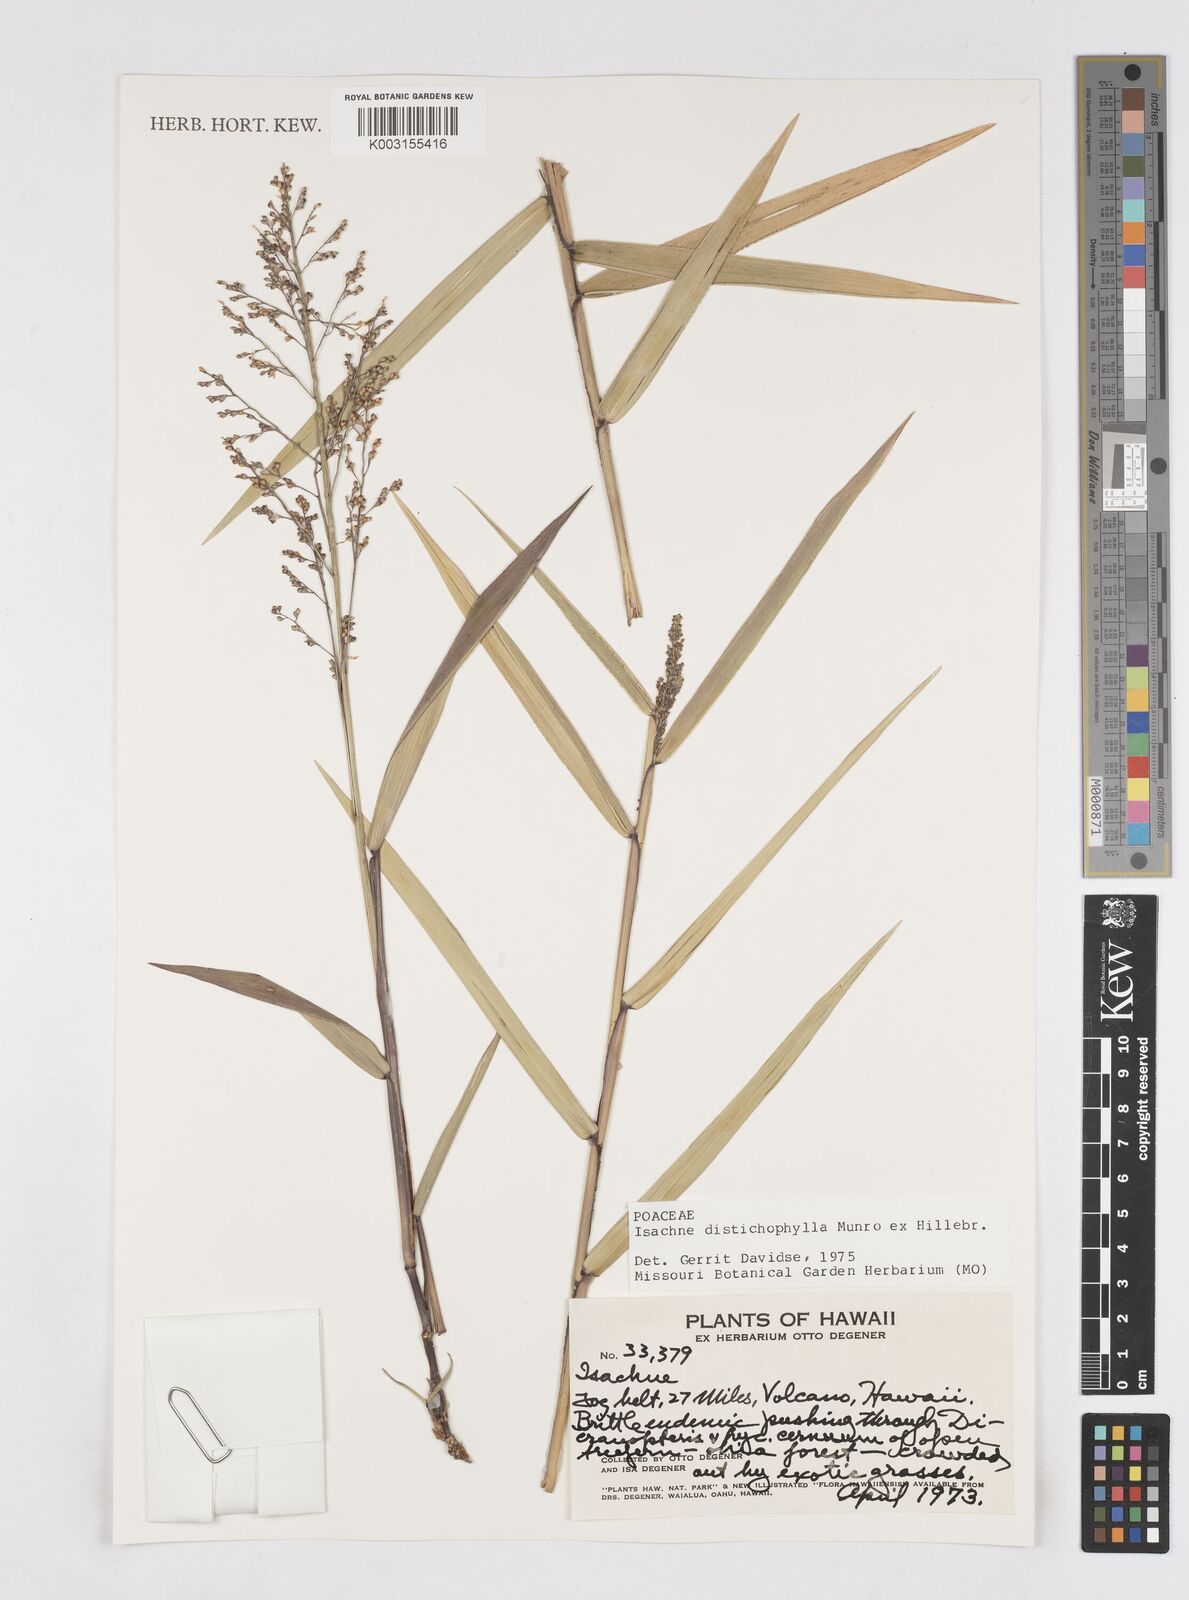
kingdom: Plantae
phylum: Tracheophyta
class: Liliopsida
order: Poales
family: Poaceae
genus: Isachne
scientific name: Isachne distichophylla
